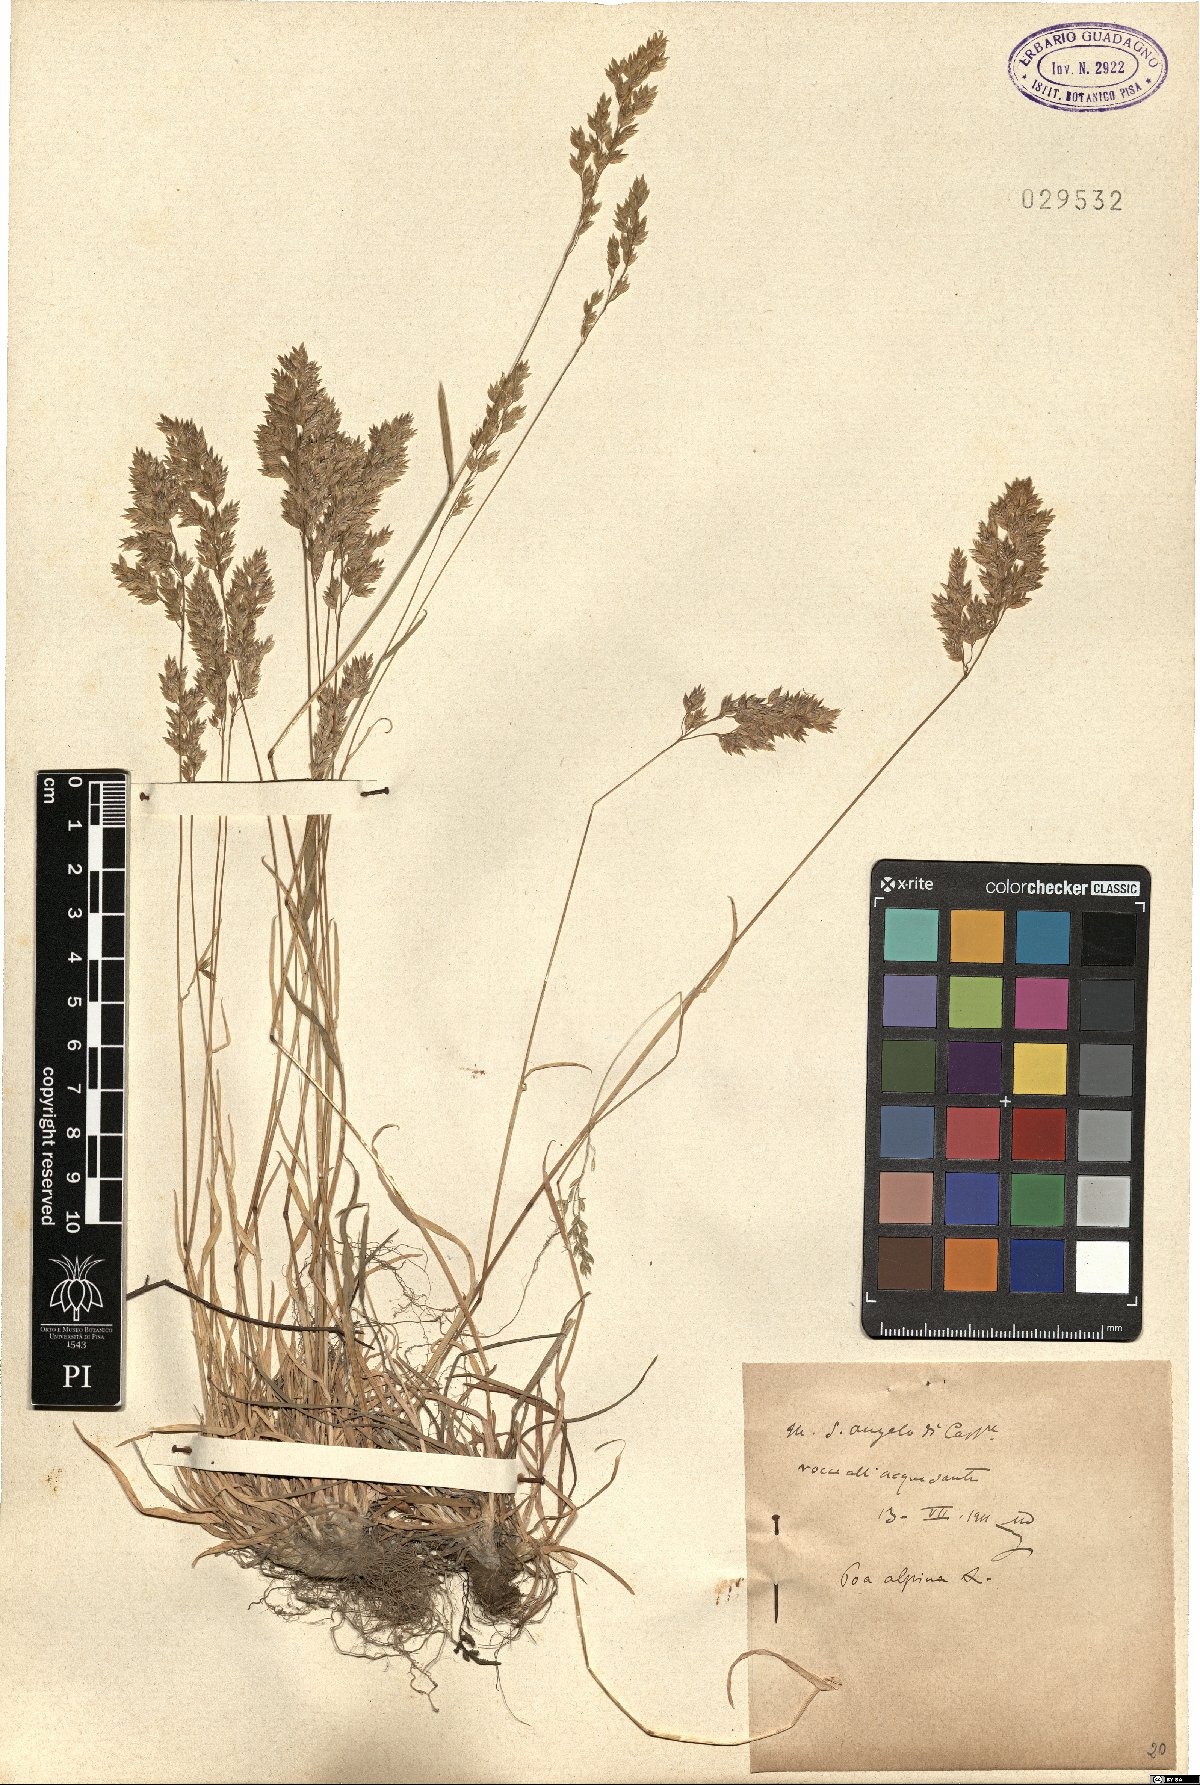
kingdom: Plantae
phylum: Tracheophyta
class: Liliopsida
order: Poales
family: Poaceae
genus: Poa
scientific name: Poa alpina
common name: Alpine bluegrass
